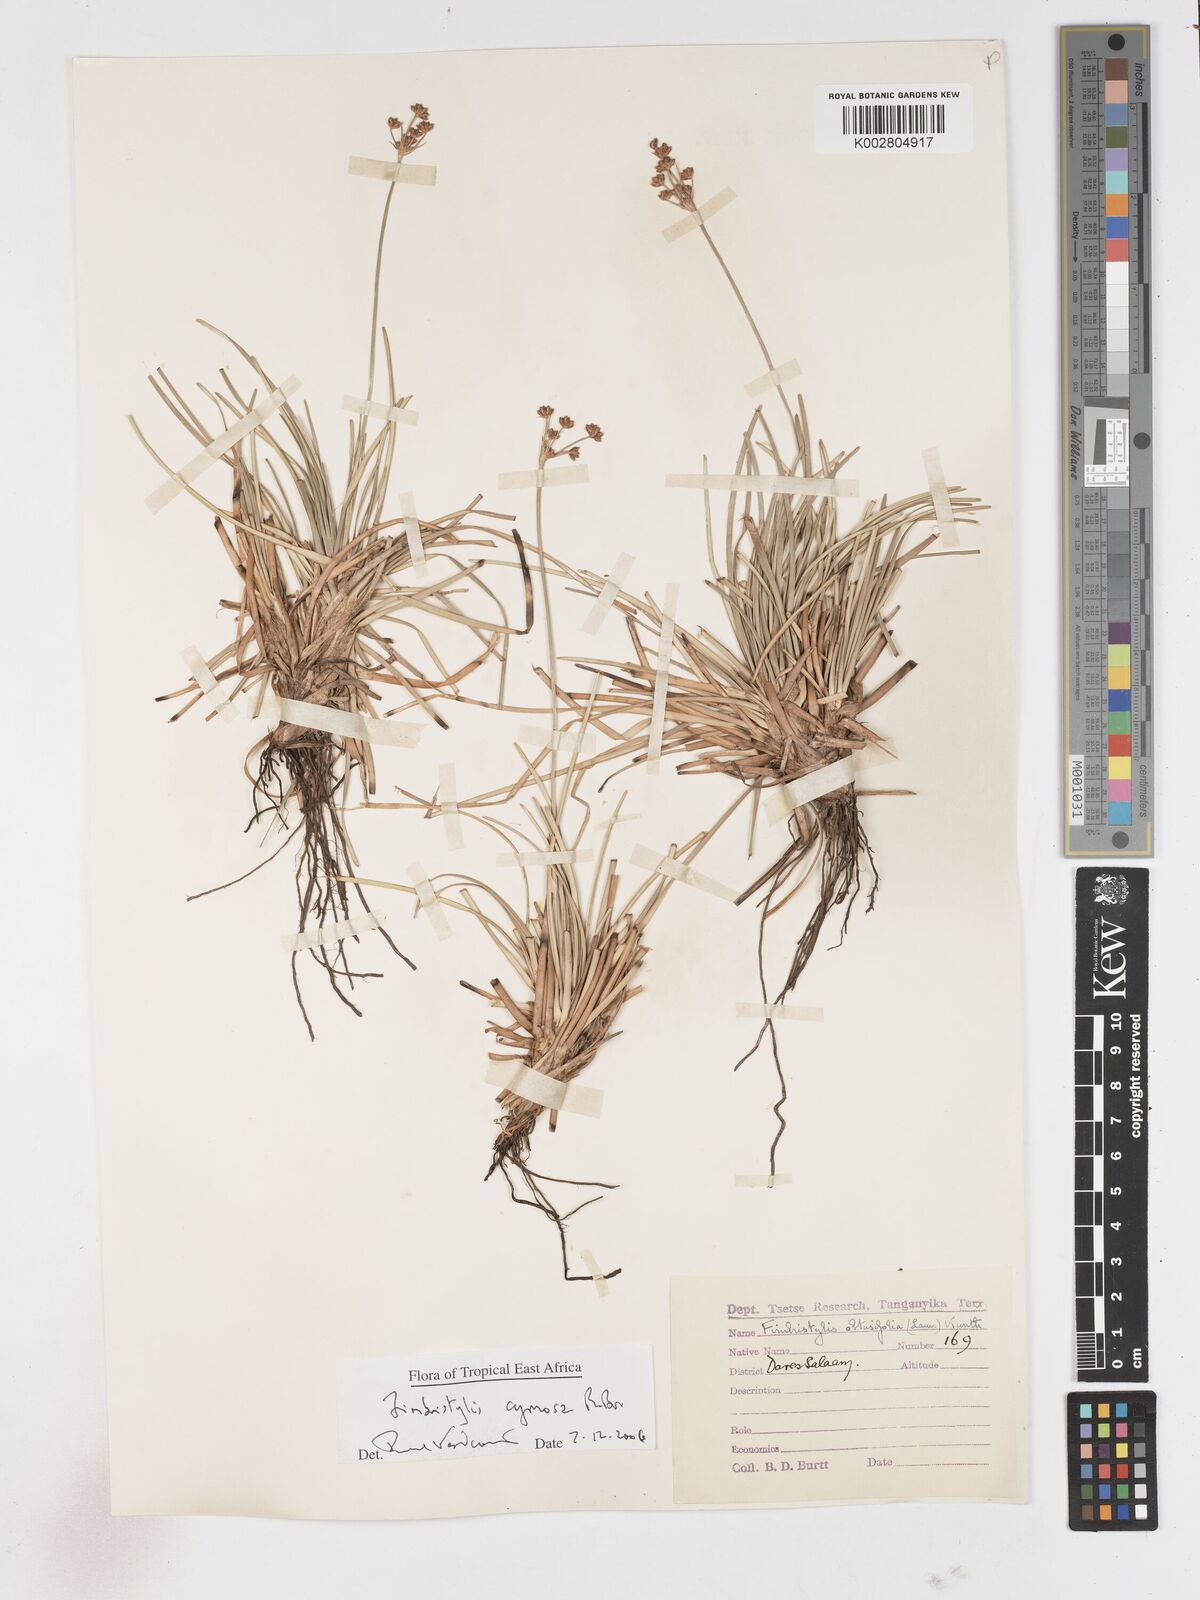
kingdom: Plantae
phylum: Tracheophyta
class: Liliopsida
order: Poales
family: Cyperaceae
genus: Fimbristylis
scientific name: Fimbristylis cymosa
